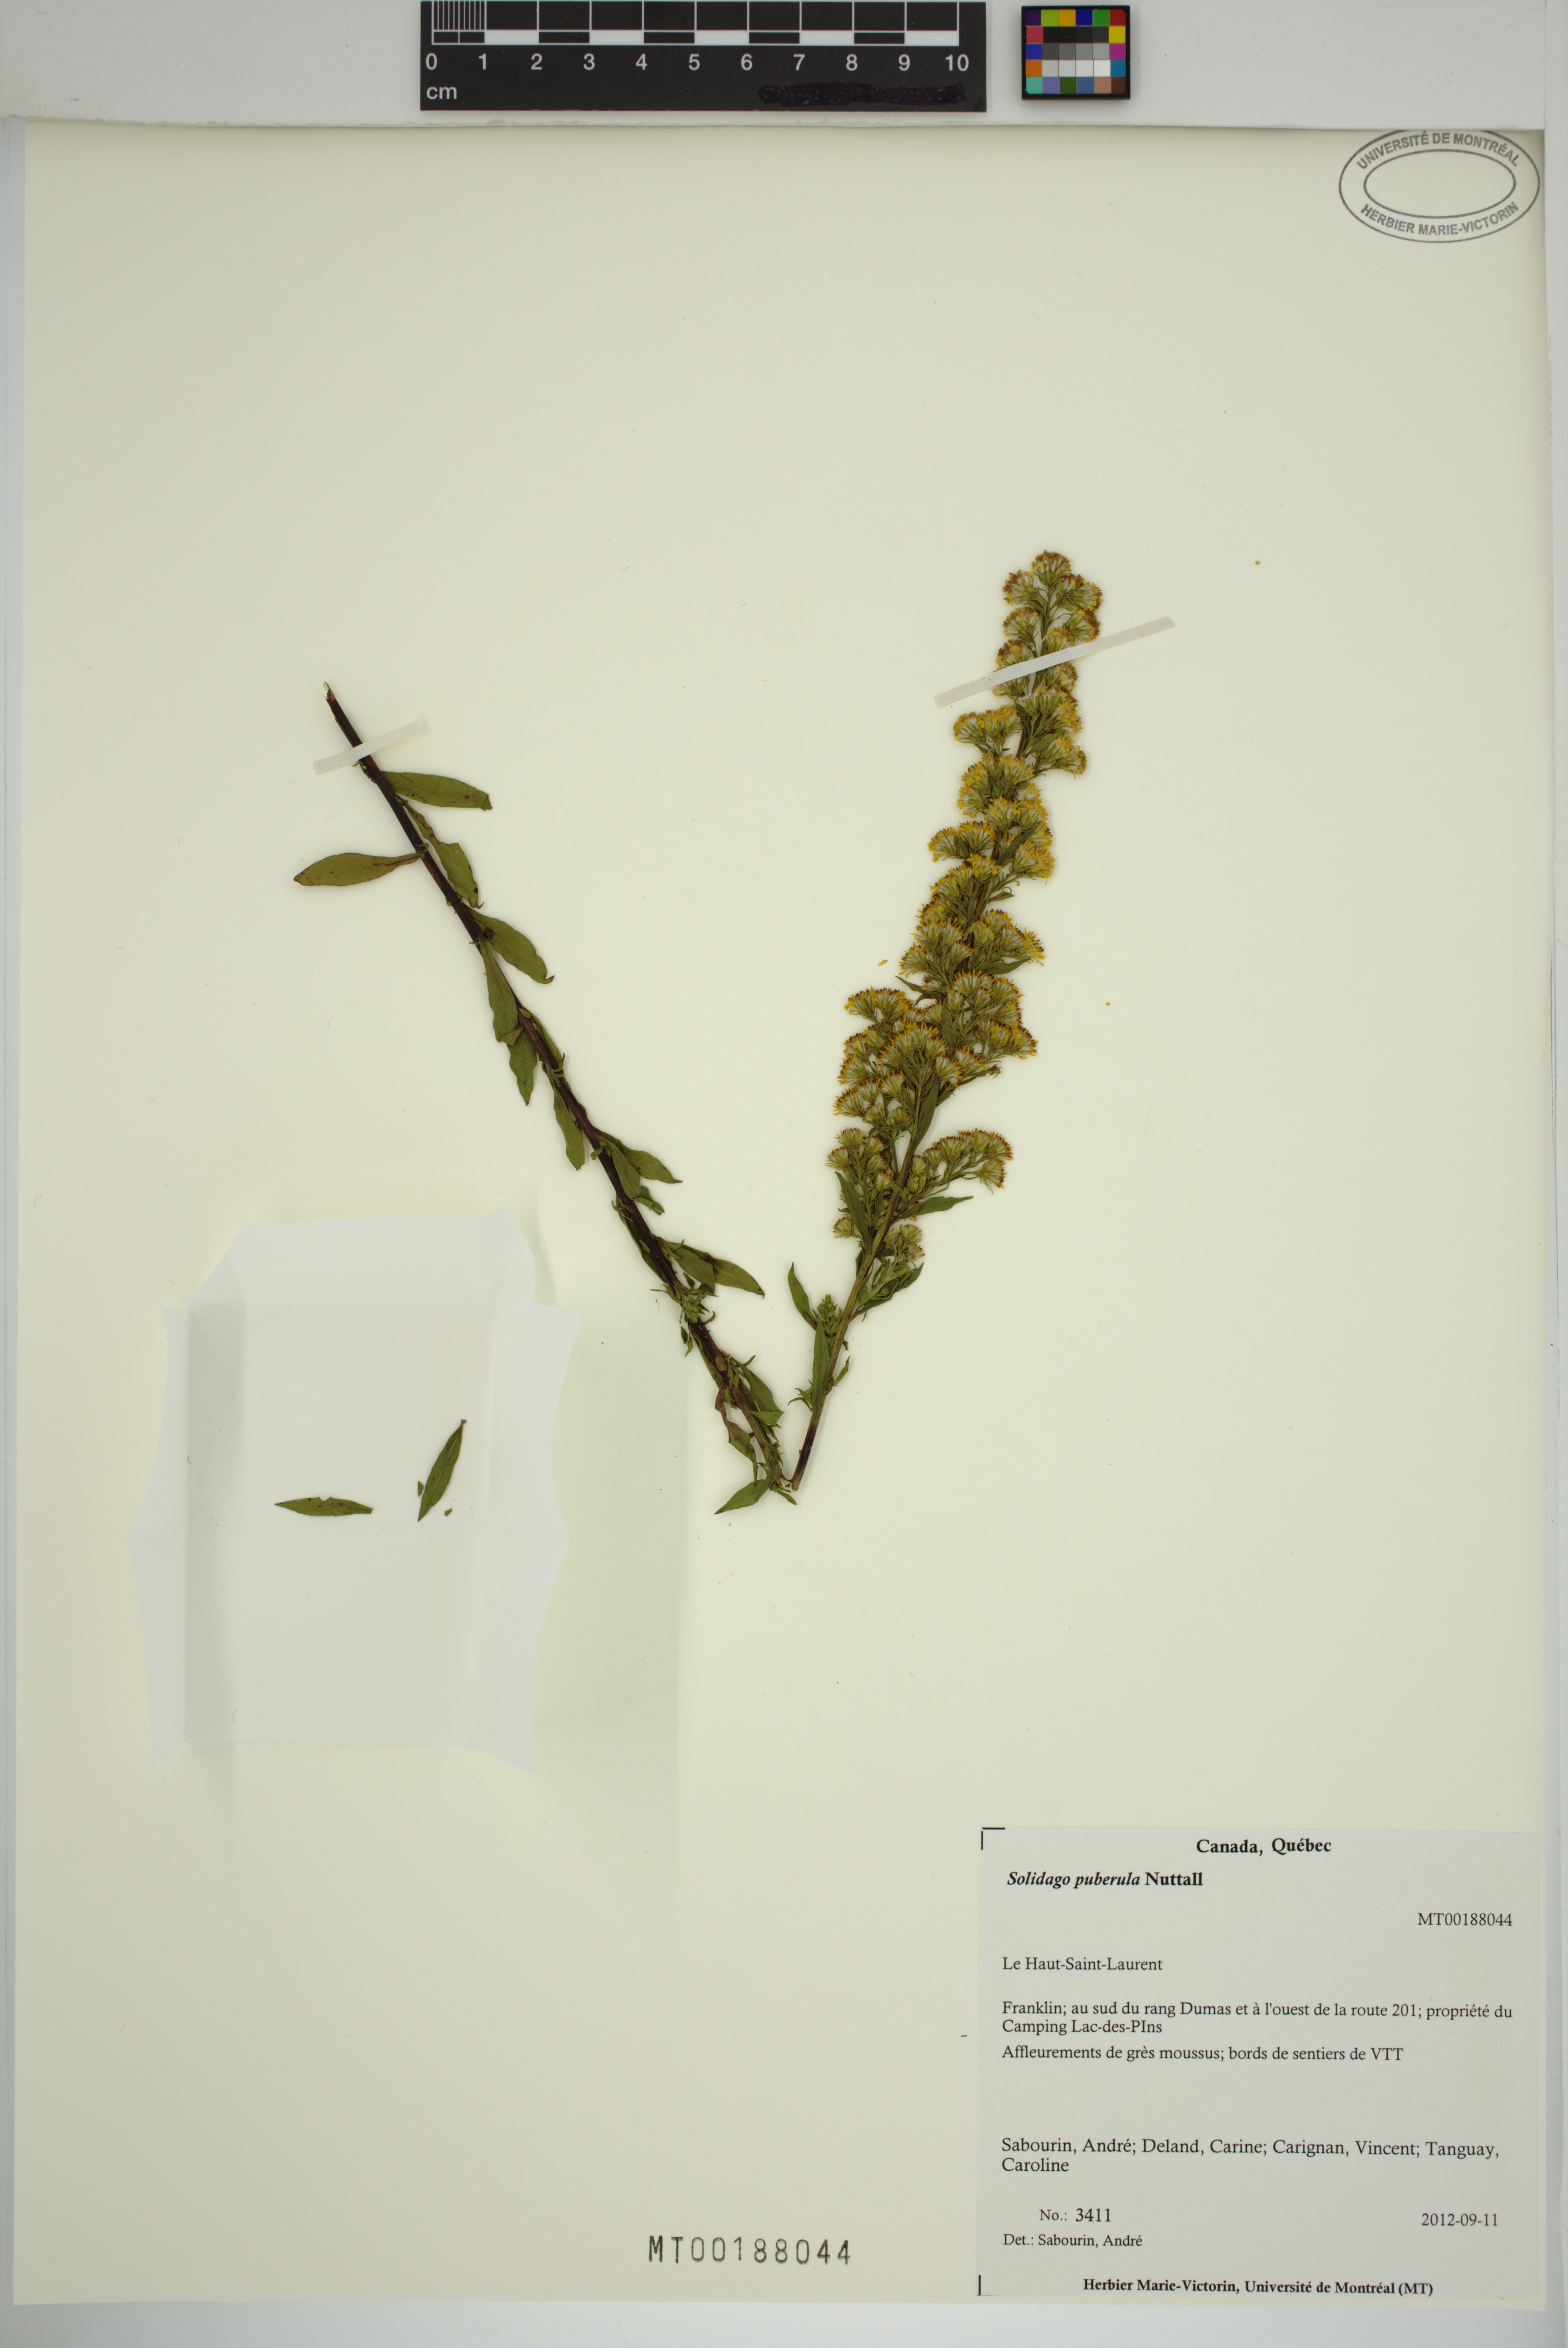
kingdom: Plantae
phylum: Tracheophyta
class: Magnoliopsida
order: Asterales
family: Asteraceae
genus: Solidago
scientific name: Solidago puberula
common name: Downy goldenrod
